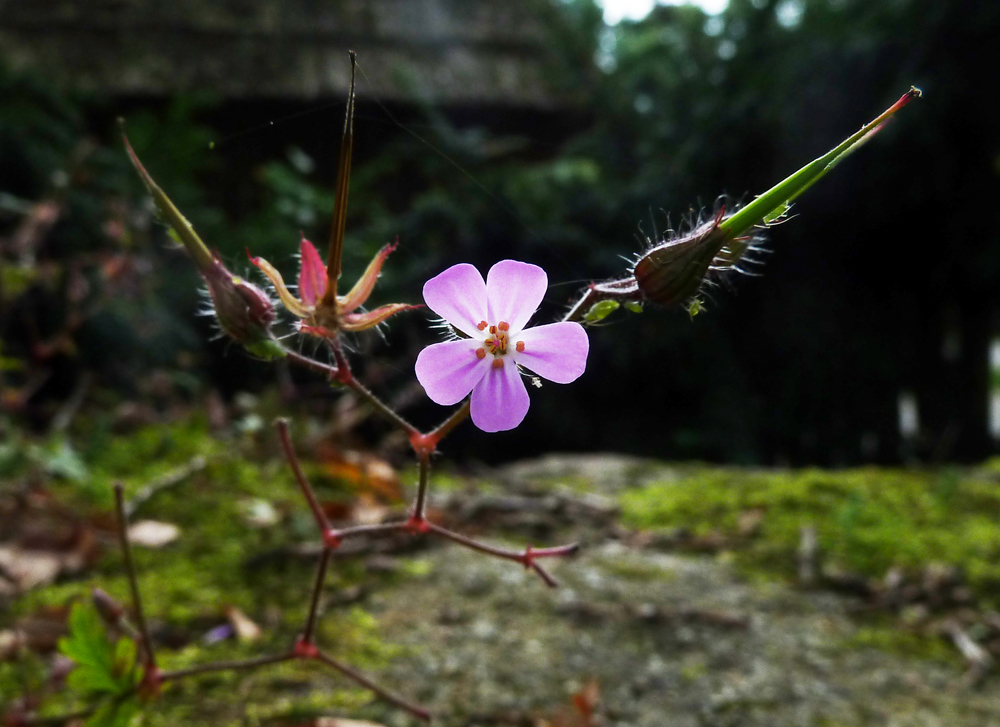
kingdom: Plantae
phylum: Tracheophyta
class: Magnoliopsida
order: Geraniales
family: Geraniaceae
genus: Geranium
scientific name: Geranium robertianum
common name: Herb-robert
